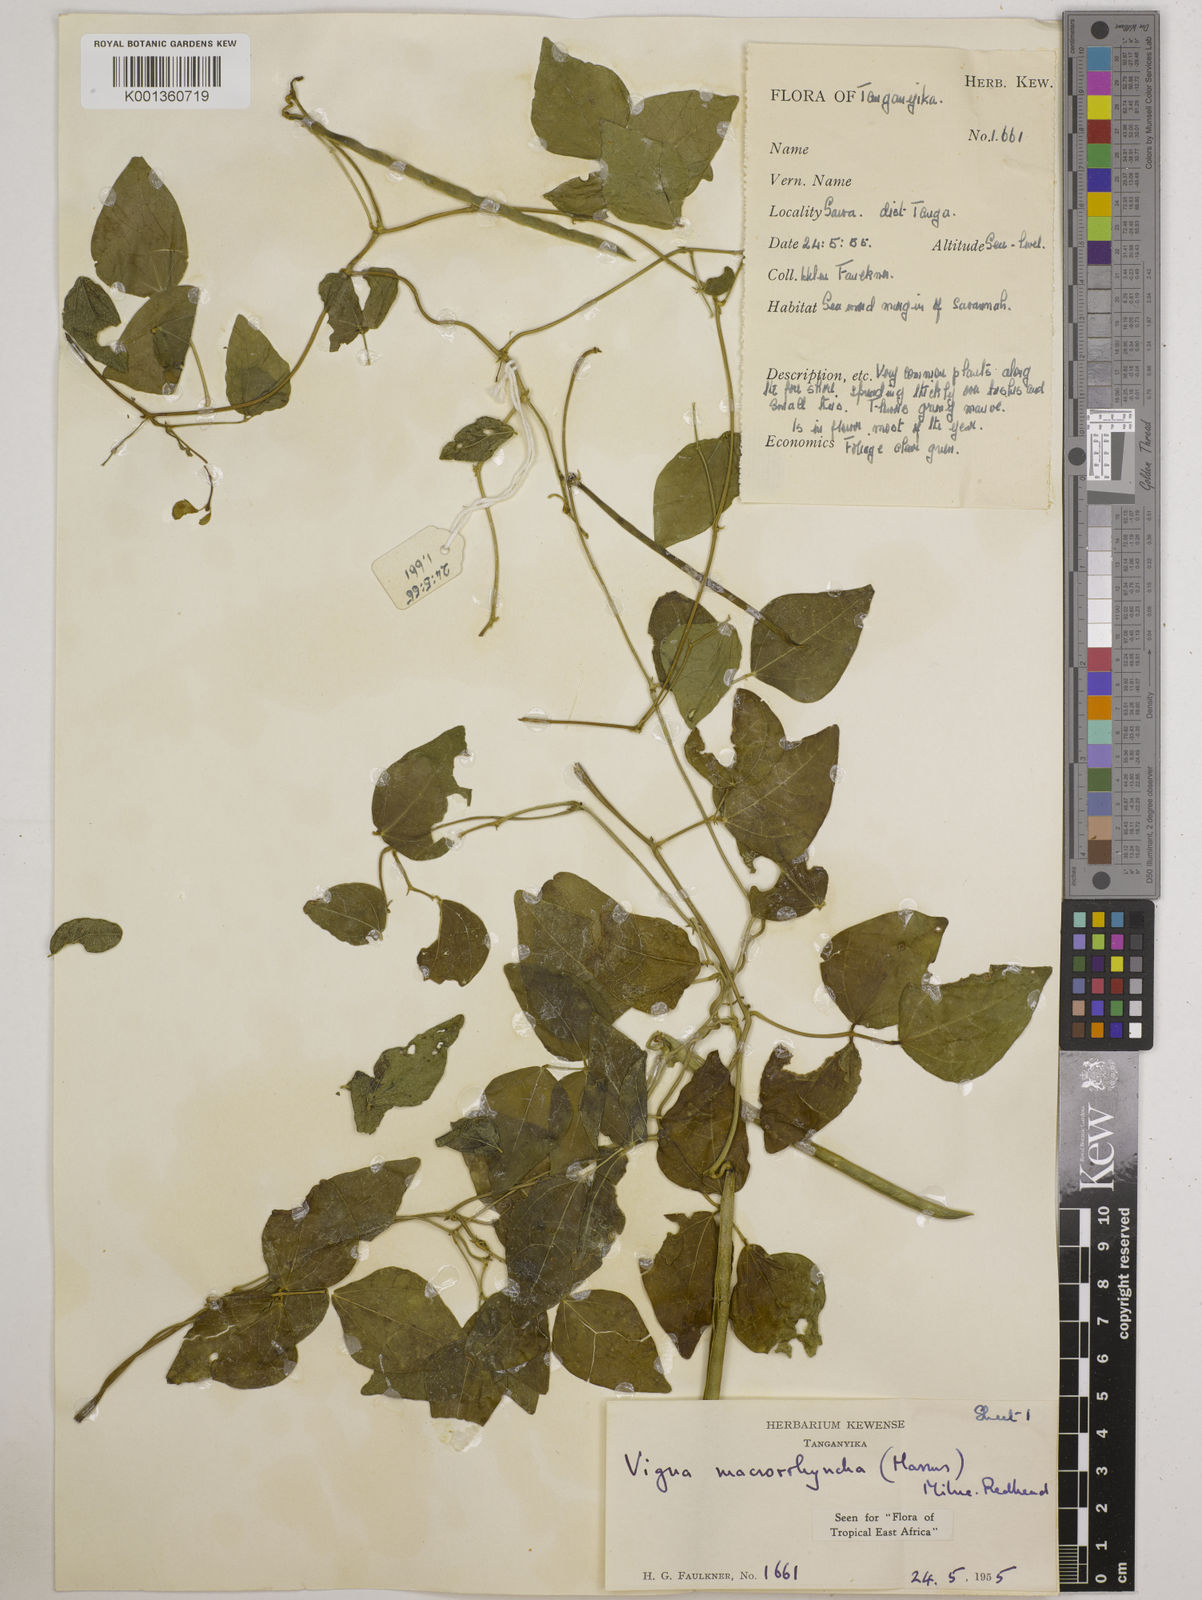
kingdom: Plantae
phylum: Tracheophyta
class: Magnoliopsida
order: Fabales
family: Fabaceae
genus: Wajira
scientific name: Wajira grahamiana
